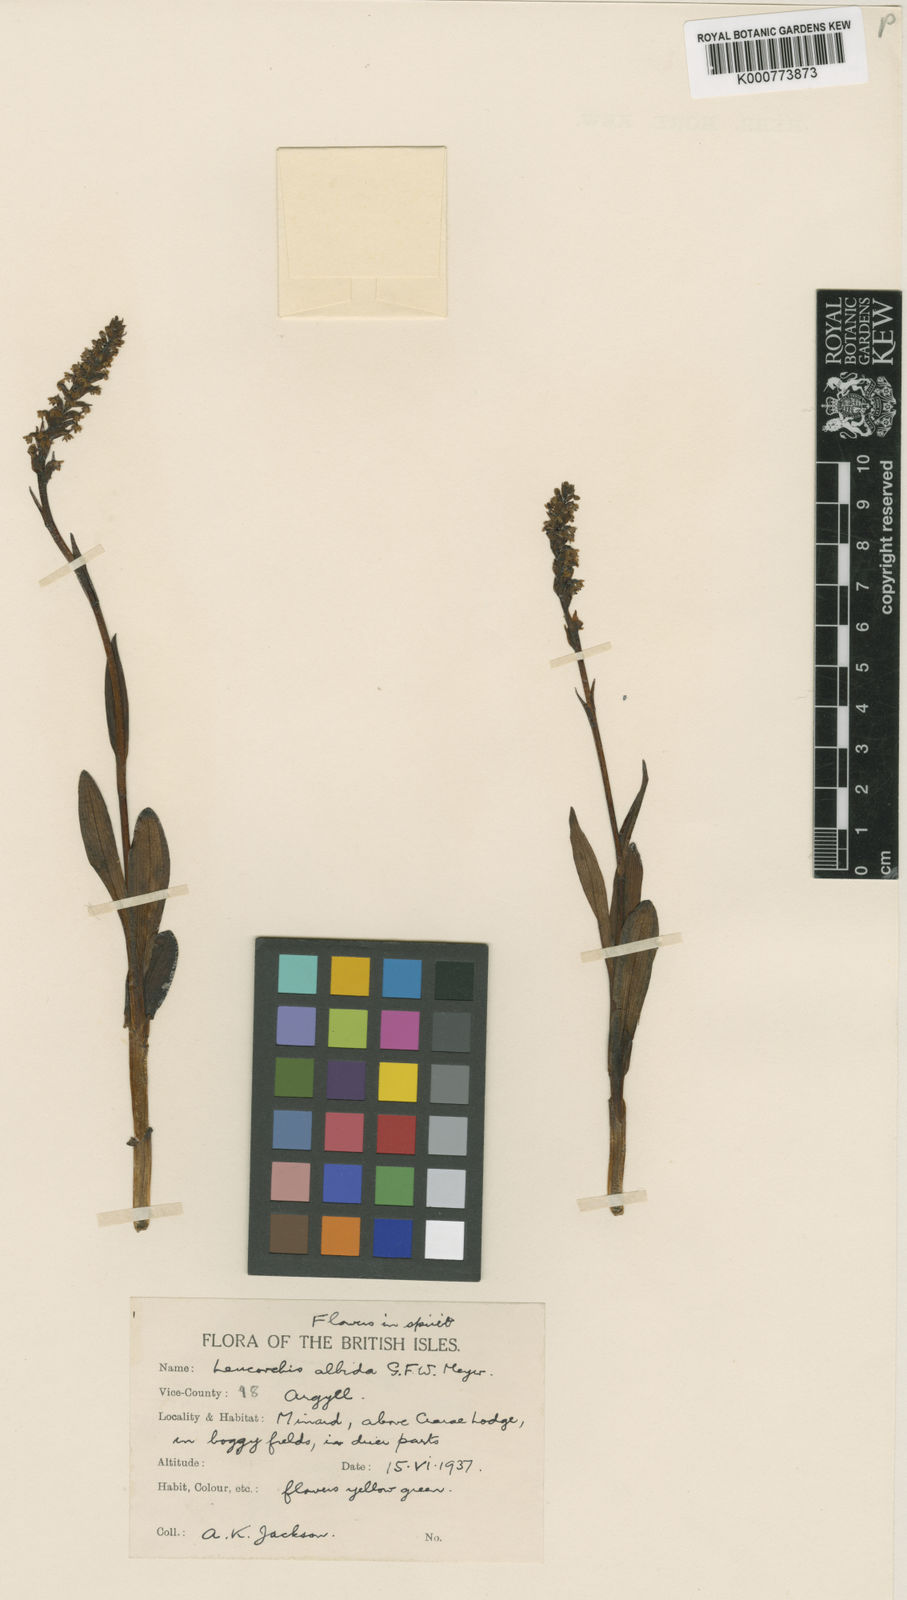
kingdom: Plantae
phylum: Tracheophyta
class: Liliopsida
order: Asparagales
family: Orchidaceae
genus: Pseudorchis
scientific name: Pseudorchis
